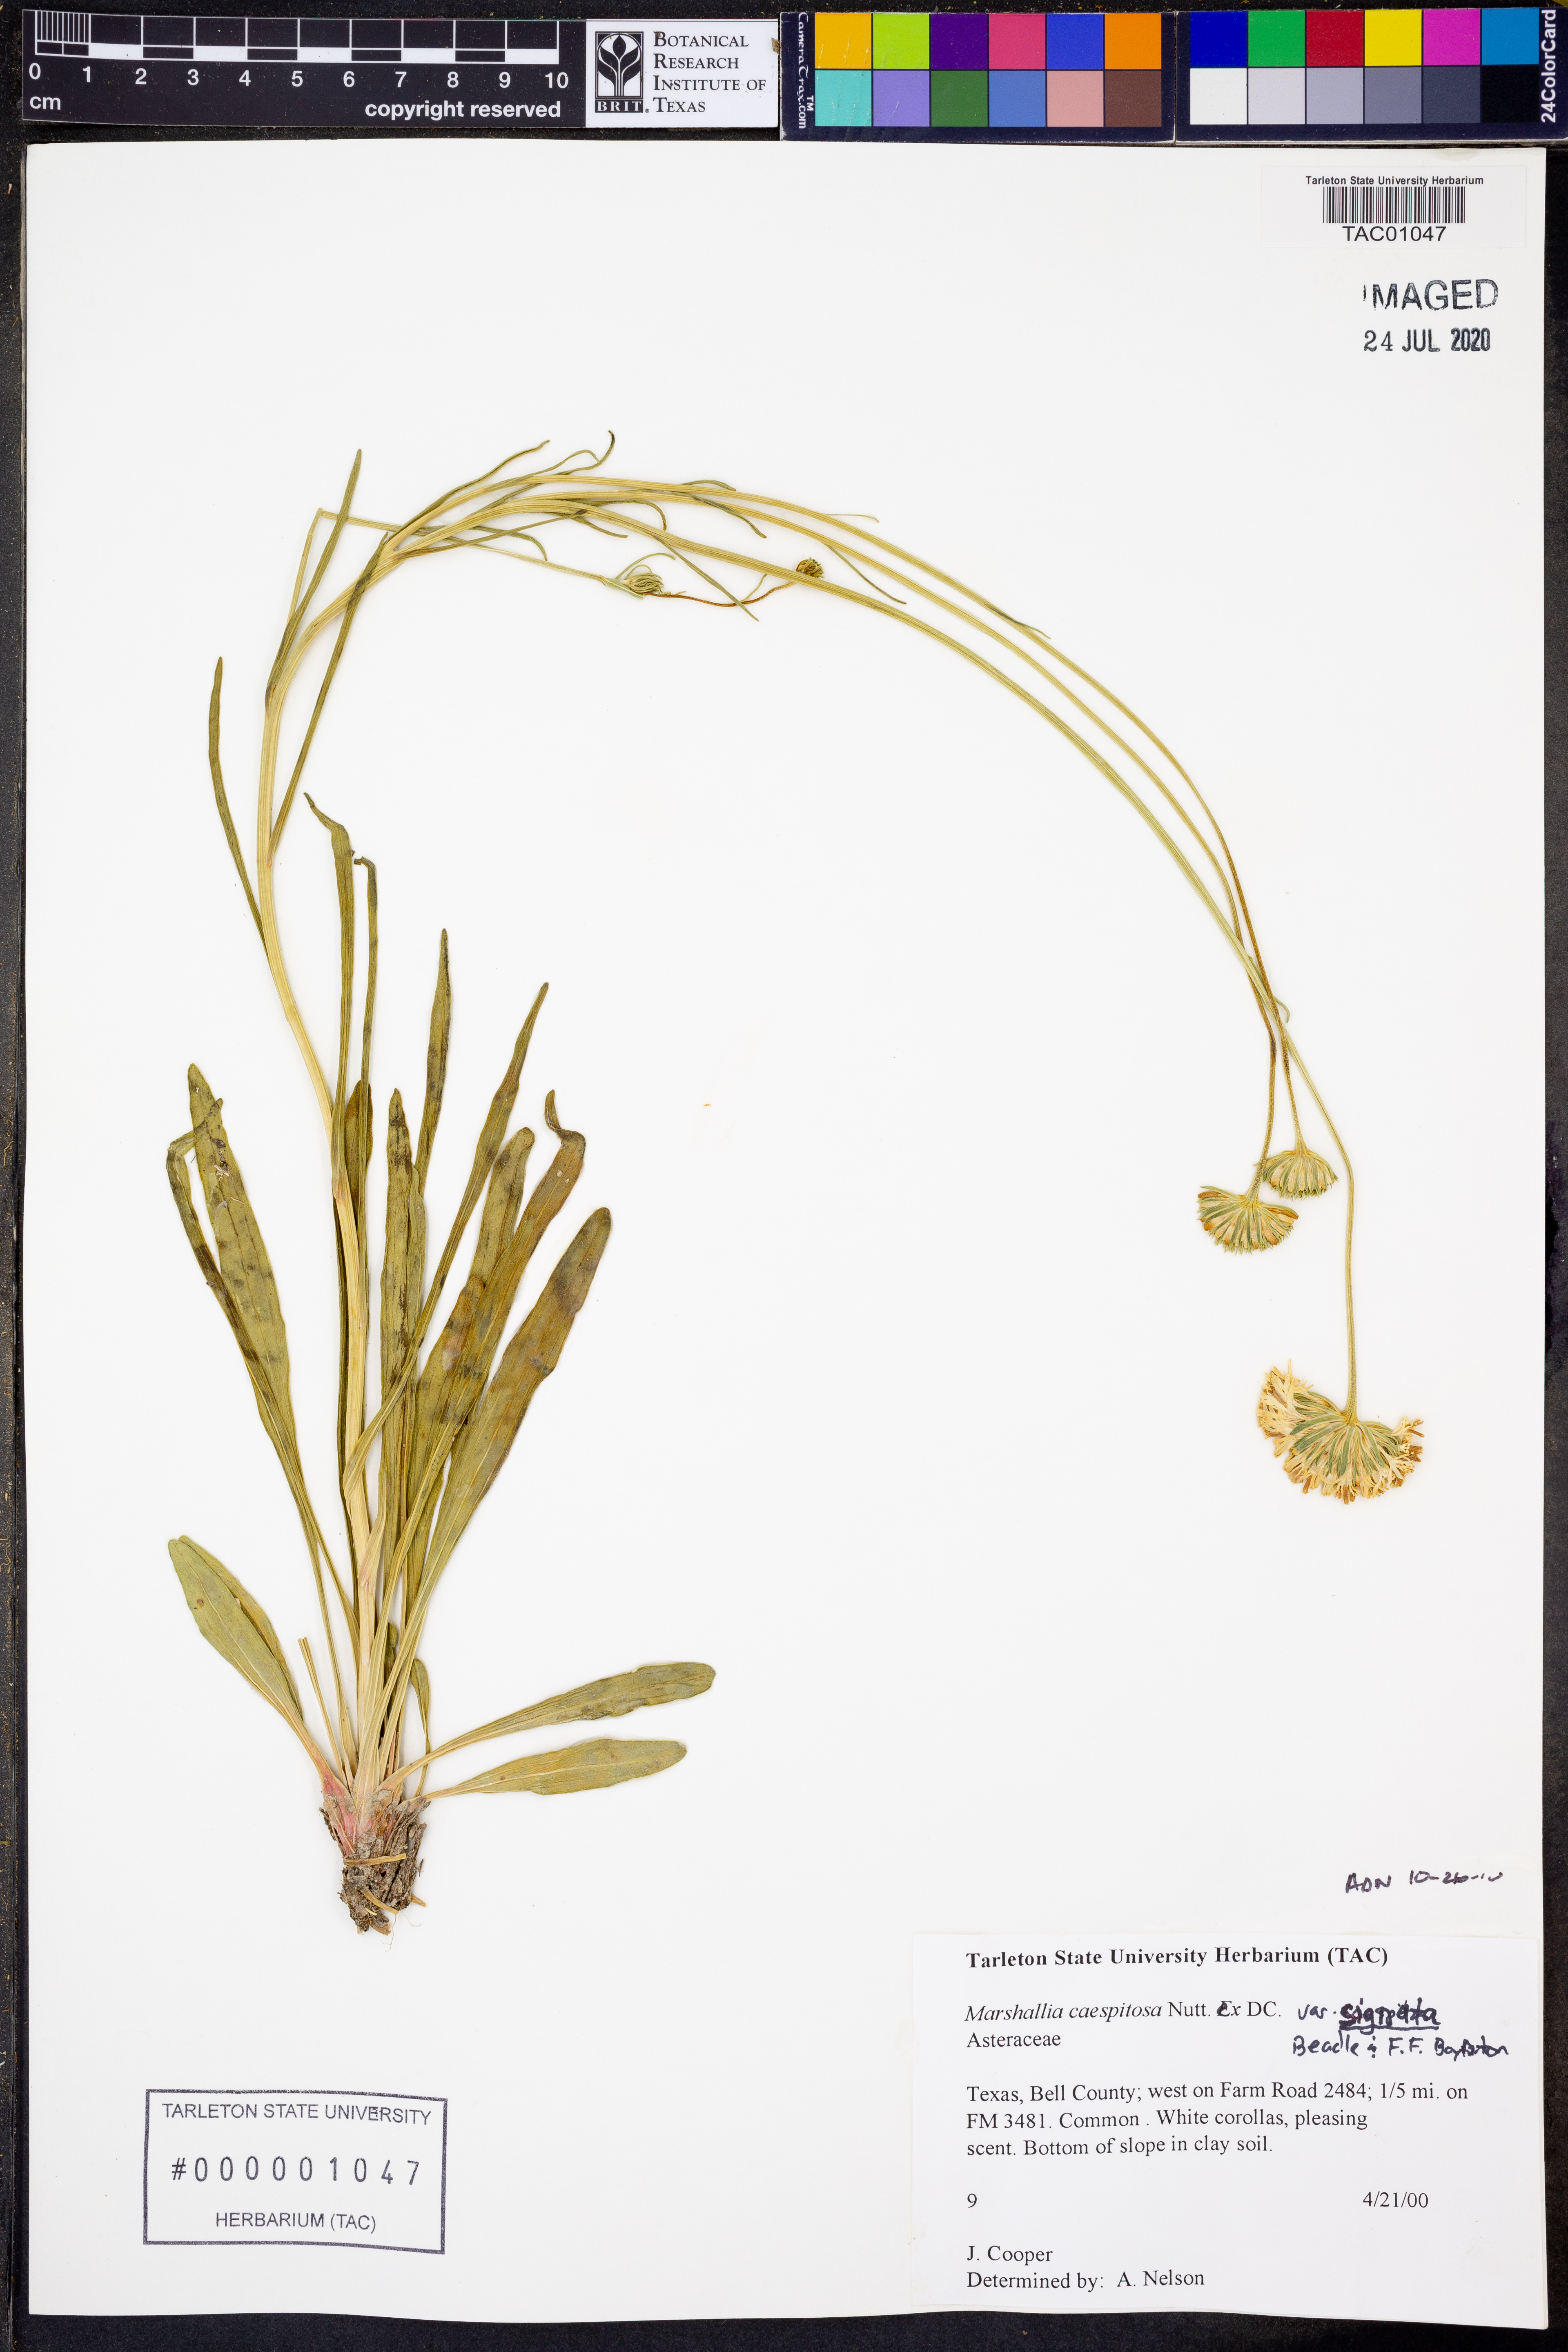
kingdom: Plantae
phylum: Tracheophyta
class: Magnoliopsida
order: Asterales
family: Asteraceae
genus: Marshallia
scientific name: Marshallia caespitosa
